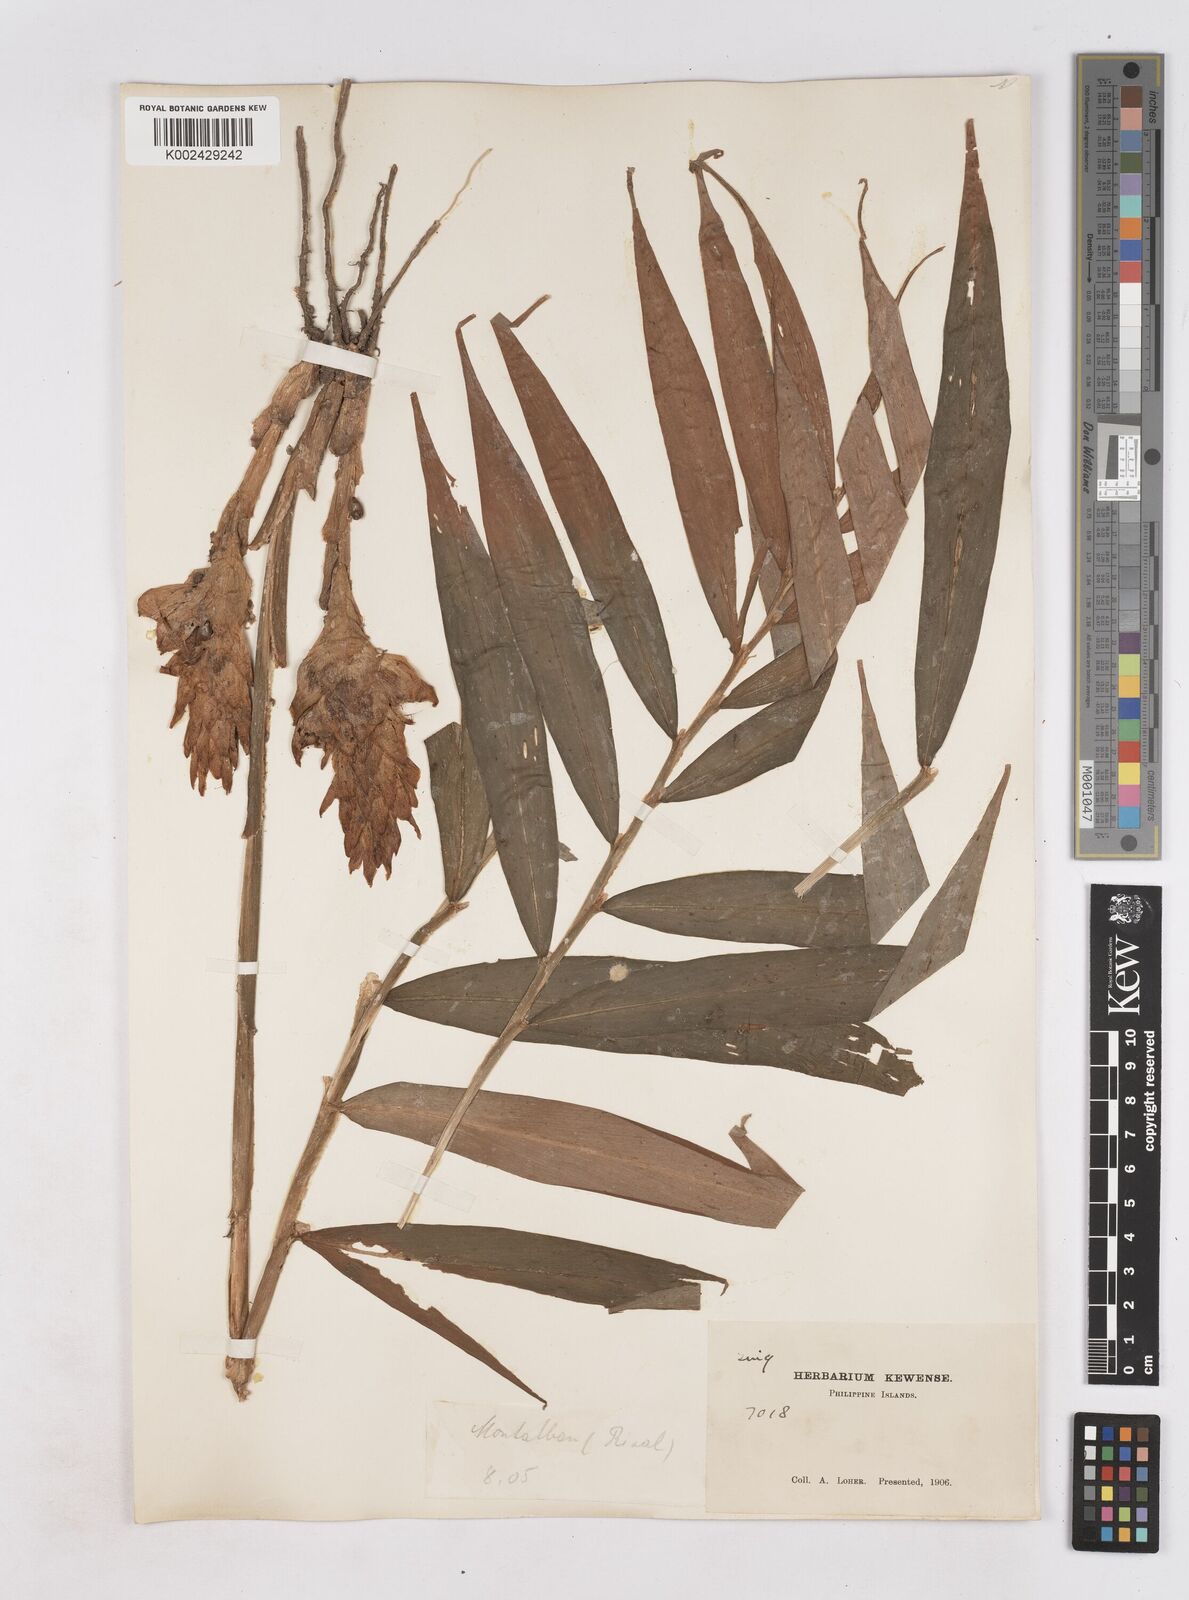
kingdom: Plantae
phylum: Tracheophyta
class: Liliopsida
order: Zingiberales
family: Zingiberaceae
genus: Zingiber
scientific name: Zingiber
